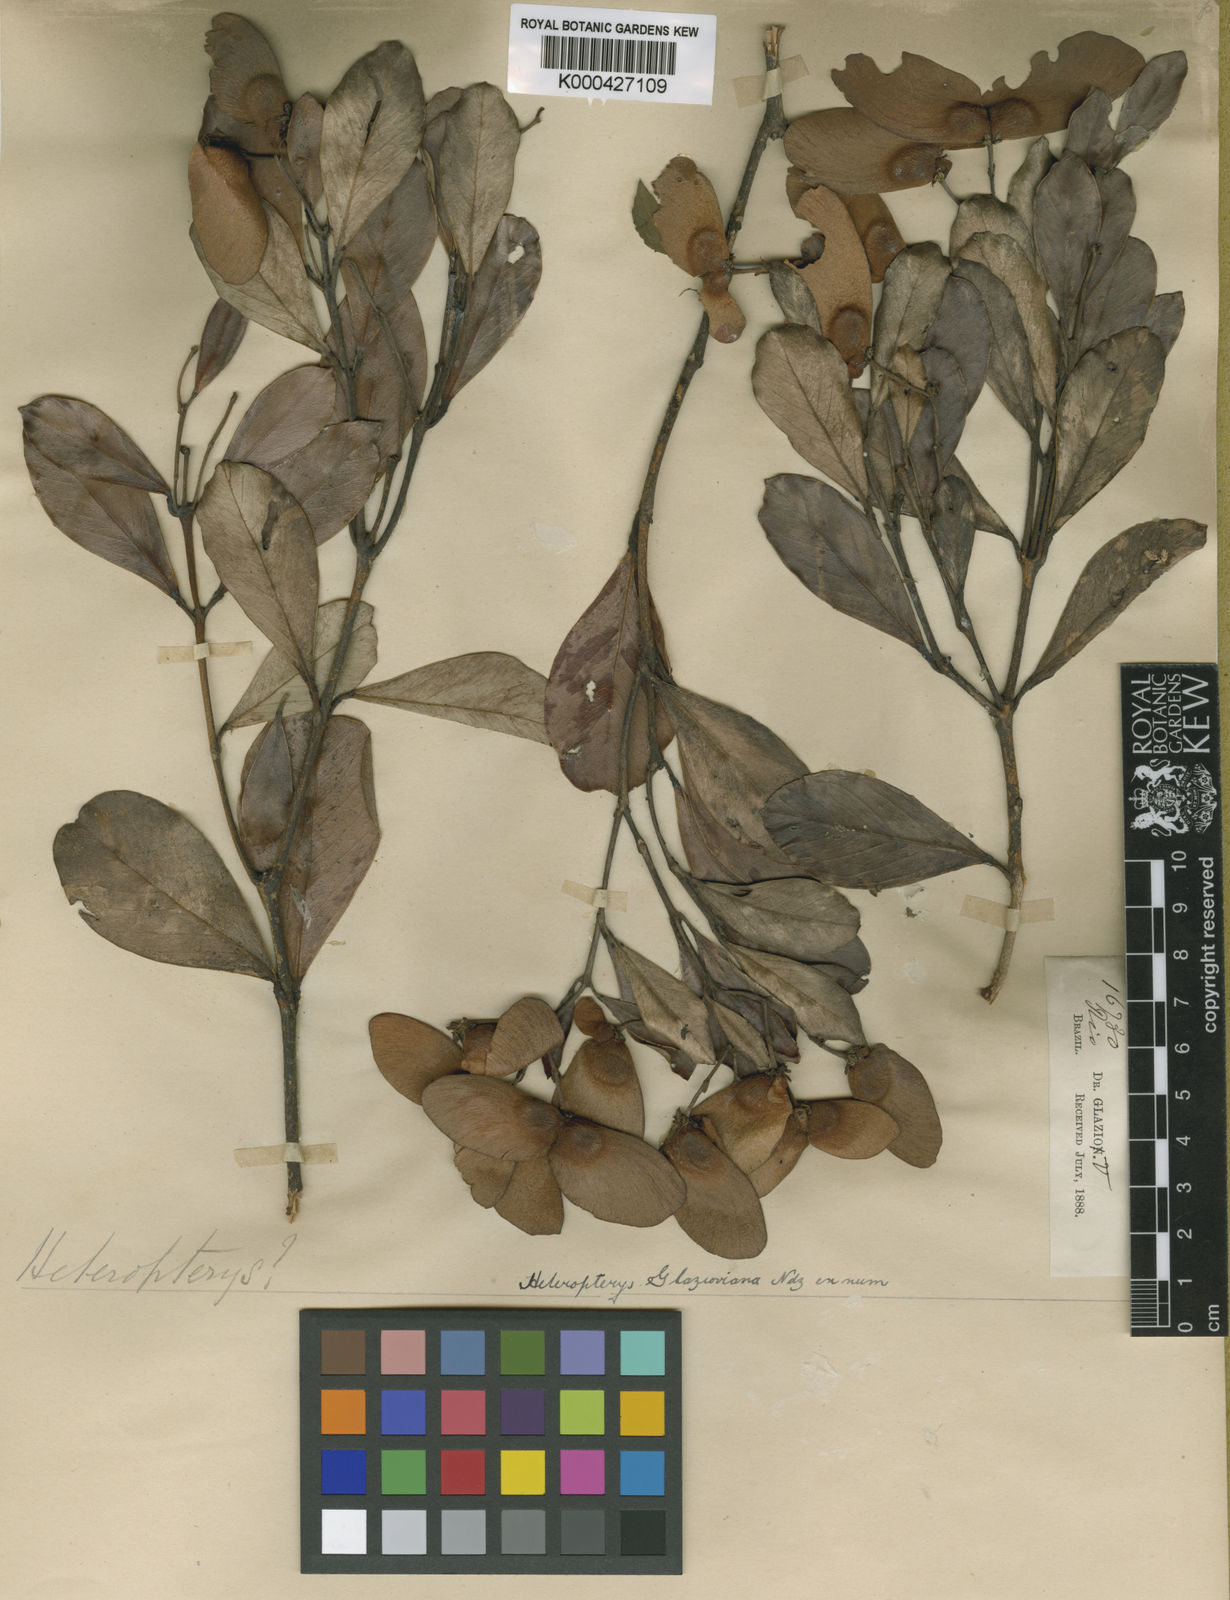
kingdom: Plantae
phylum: Tracheophyta
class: Magnoliopsida
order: Malpighiales
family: Malpighiaceae
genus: Heteropterys
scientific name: Heteropterys glazioviana
